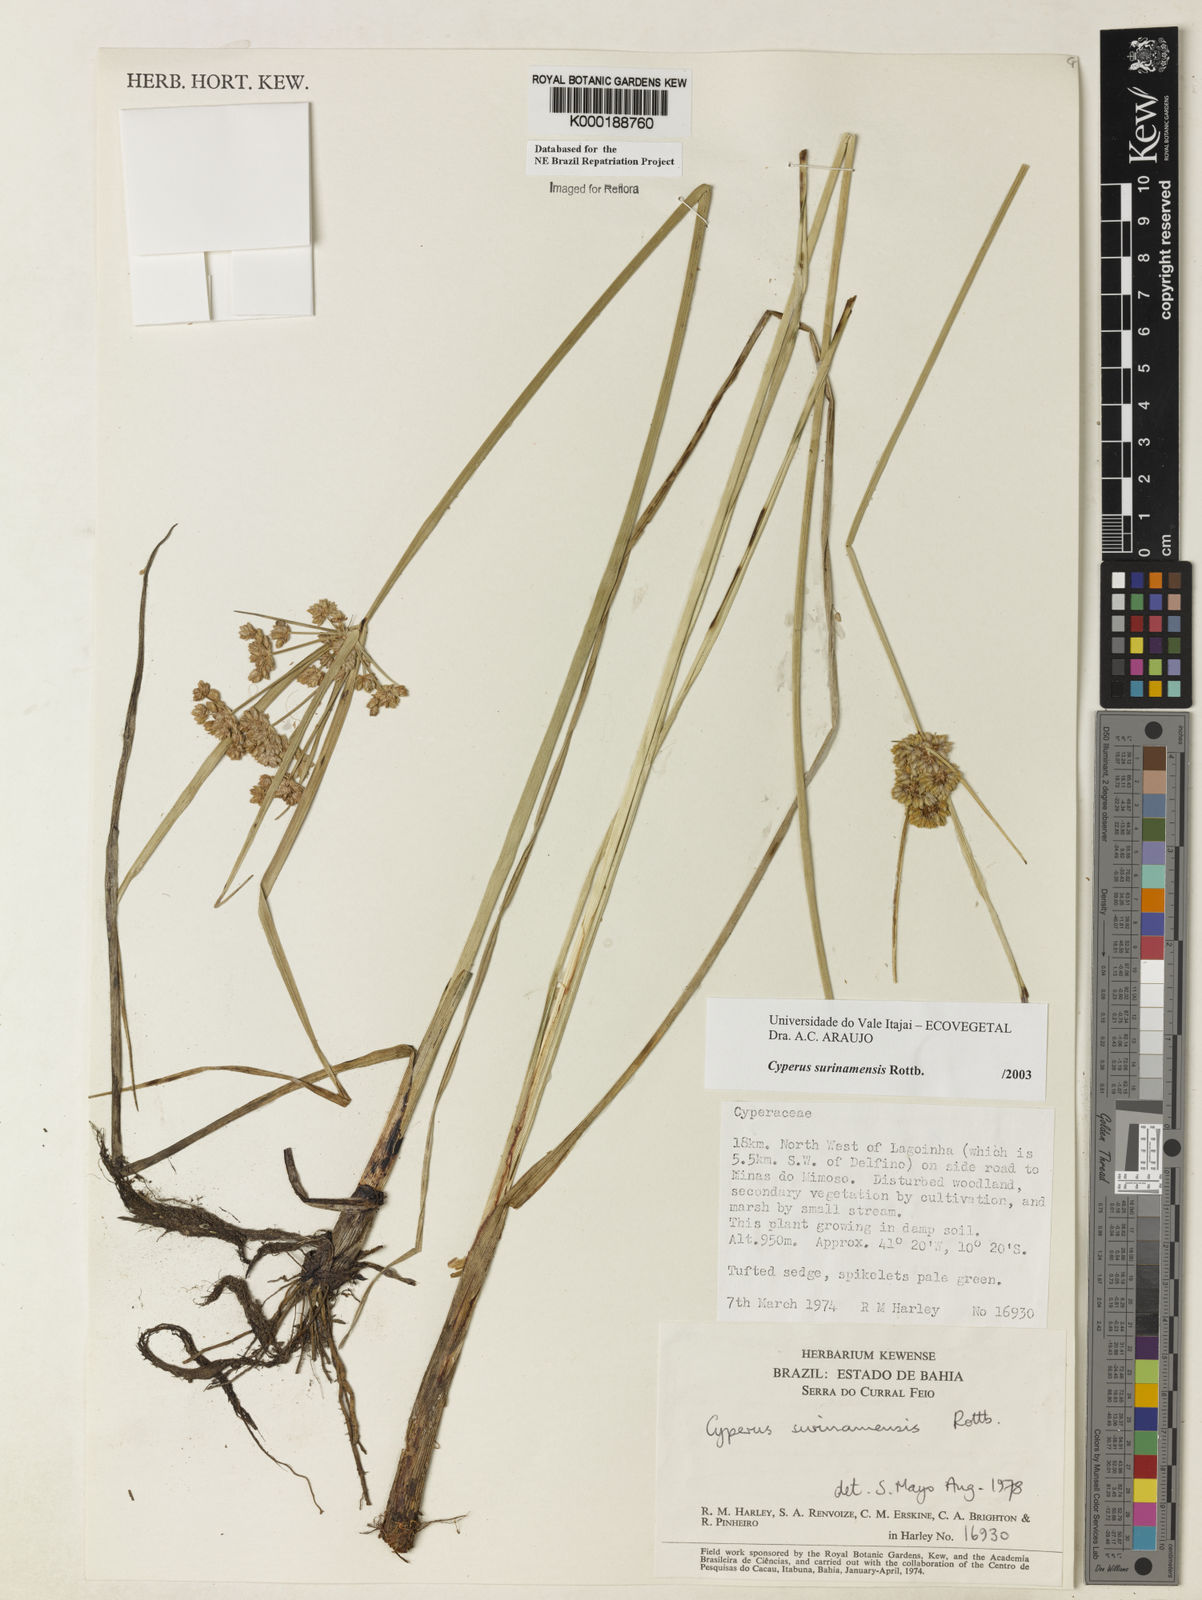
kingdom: Plantae
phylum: Tracheophyta
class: Liliopsida
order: Poales
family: Cyperaceae
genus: Cyperus
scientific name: Cyperus surinamensis
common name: Tropical flat sedge
